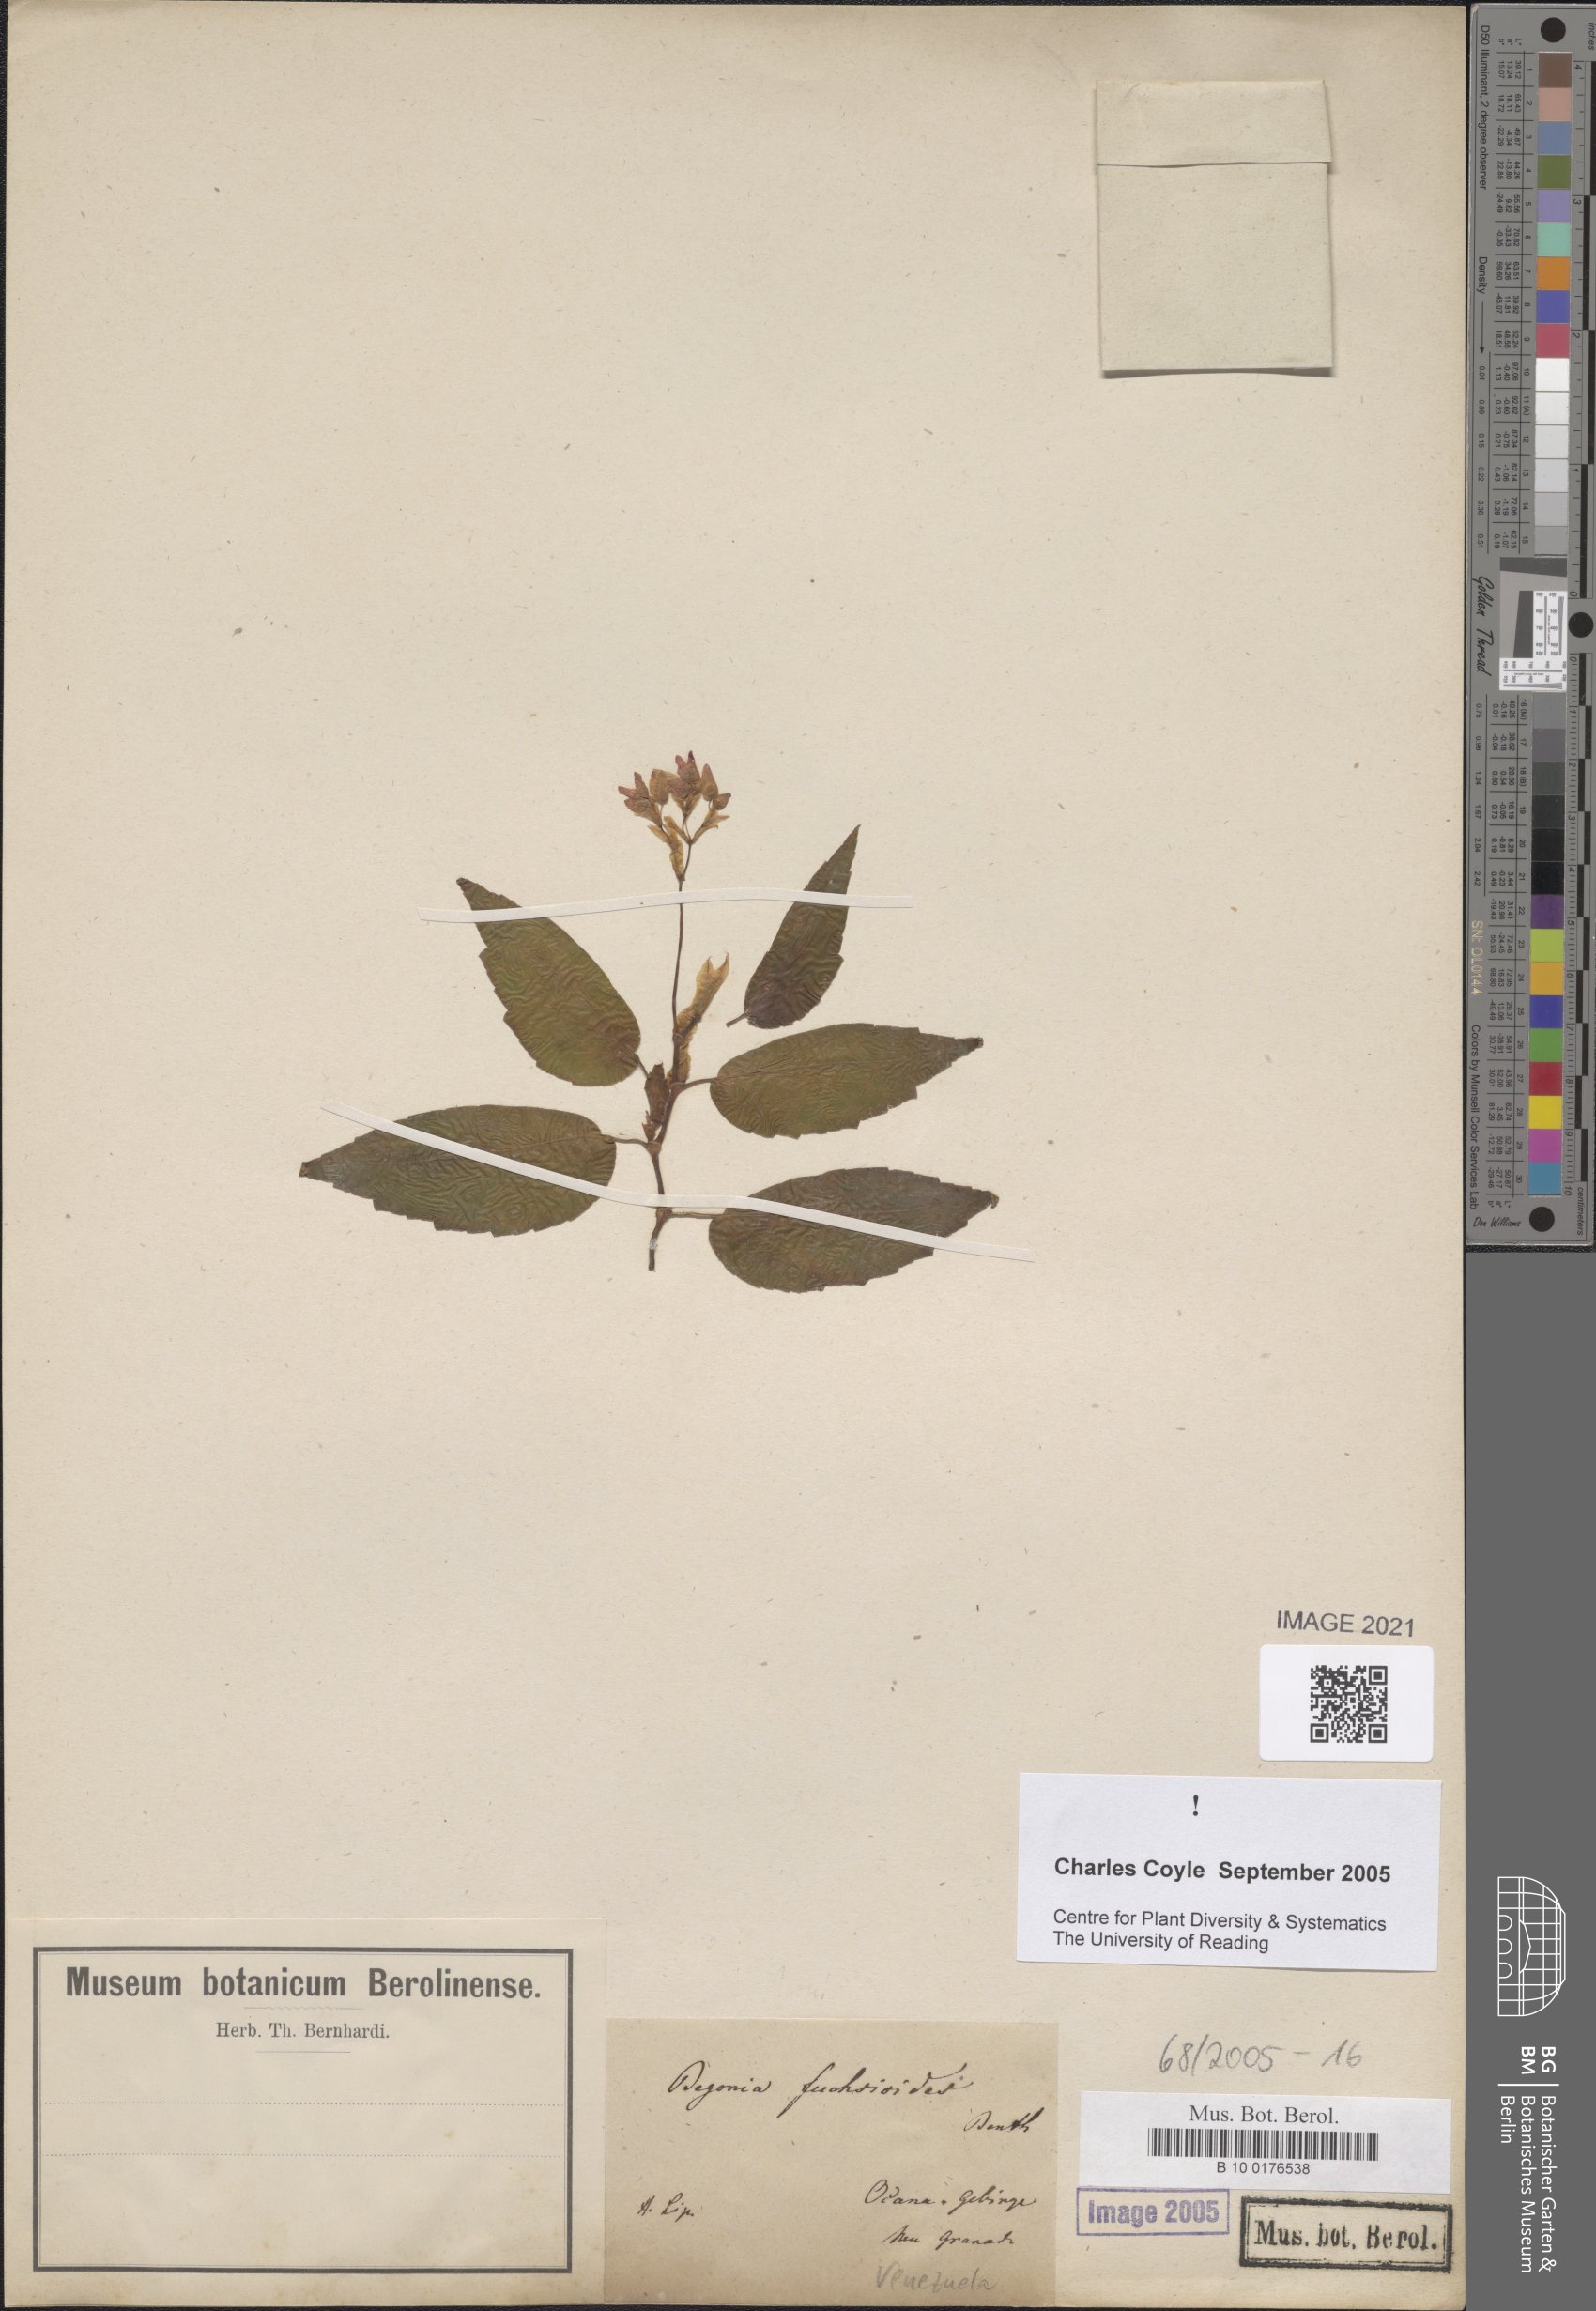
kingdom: Plantae
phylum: Tracheophyta
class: Magnoliopsida
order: Cucurbitales
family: Begoniaceae
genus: Begonia
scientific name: Begonia fuchsioides
